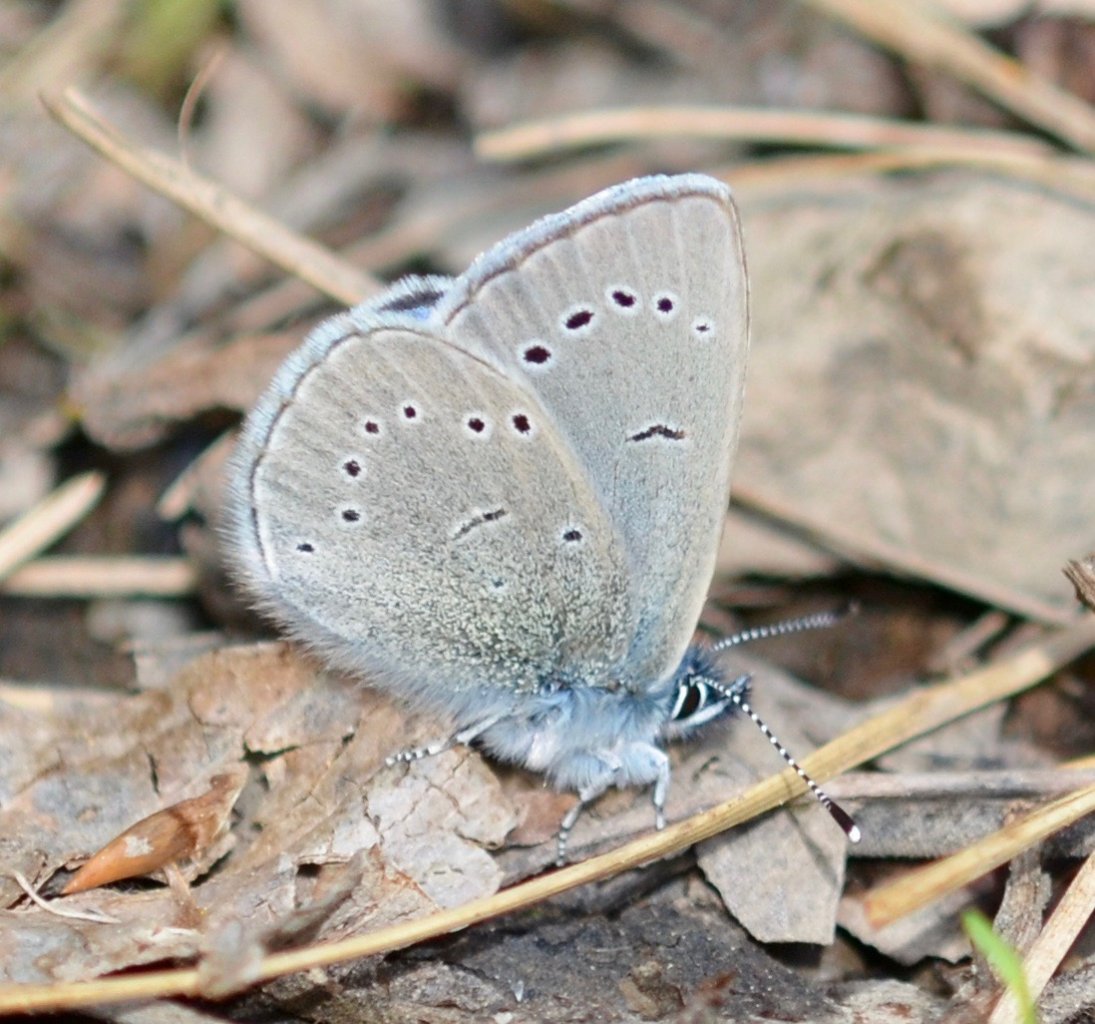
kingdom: Animalia
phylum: Arthropoda
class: Insecta
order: Lepidoptera
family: Lycaenidae
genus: Glaucopsyche
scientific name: Glaucopsyche lygdamus
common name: Silvery Blue
